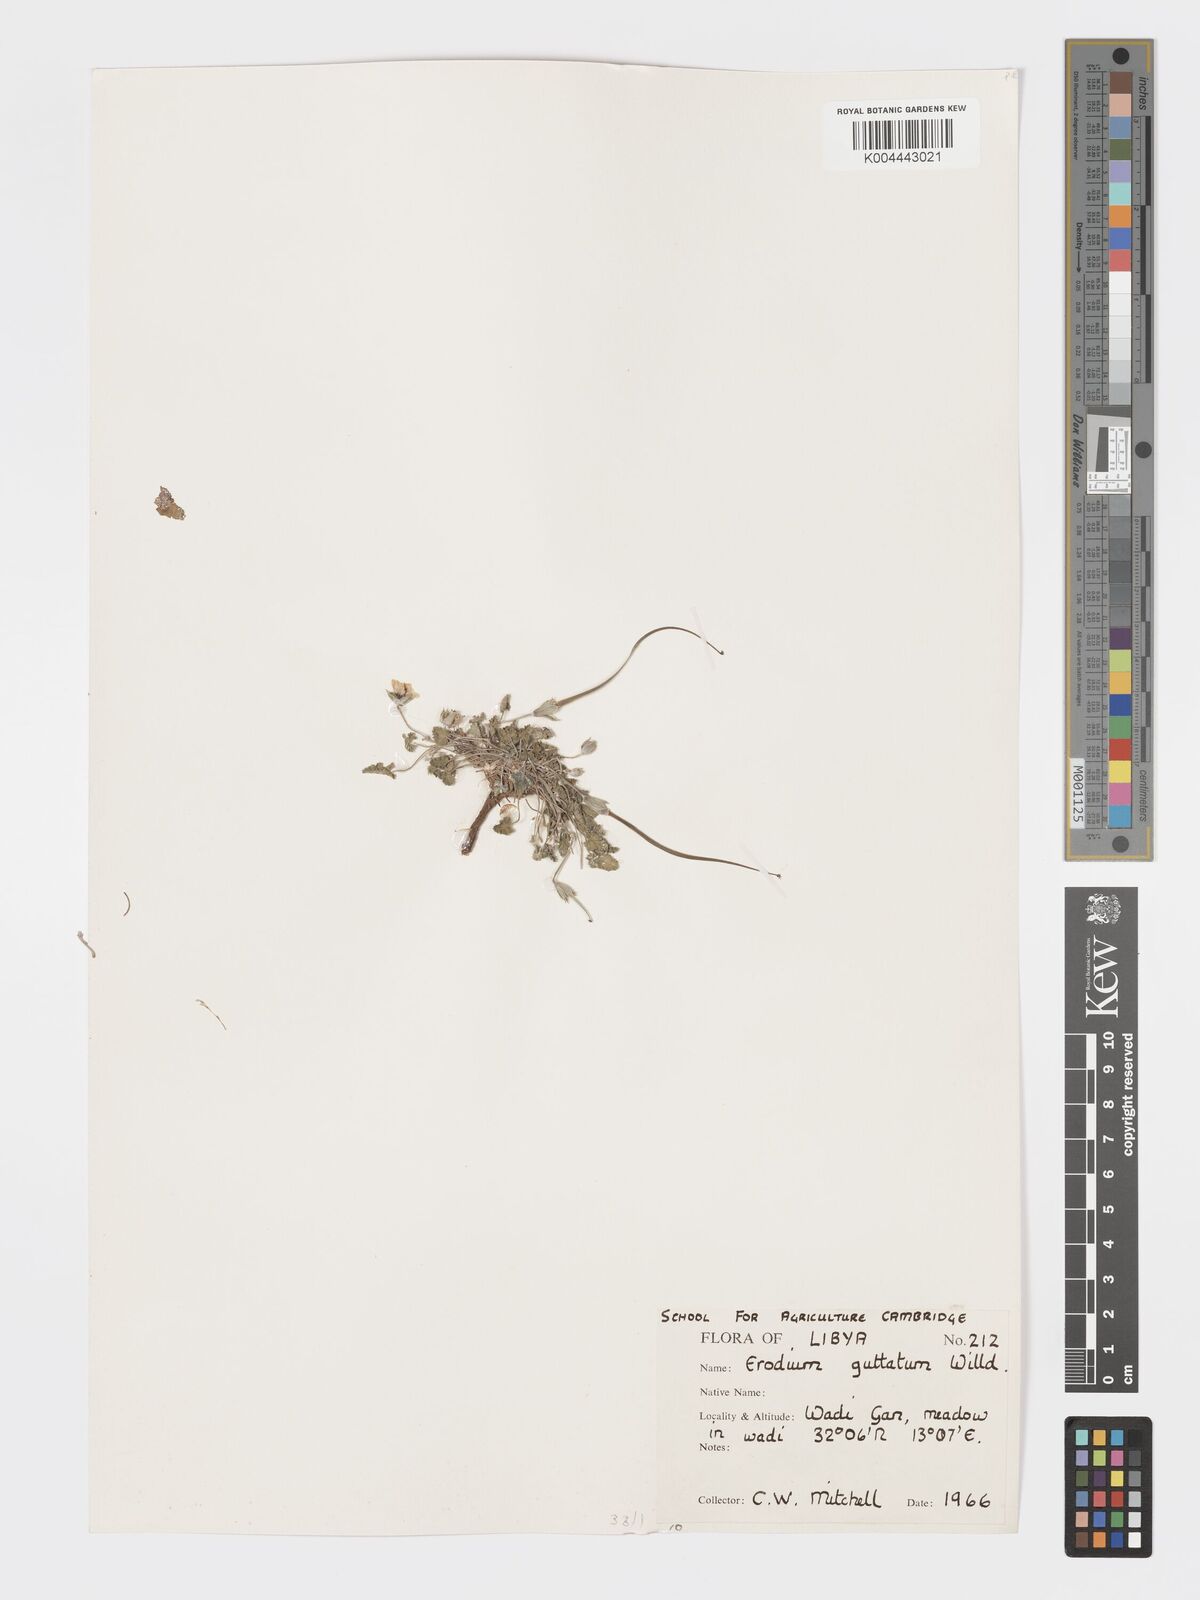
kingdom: Plantae
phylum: Tracheophyta
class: Magnoliopsida
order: Geraniales
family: Geraniaceae
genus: Erodium
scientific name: Erodium guttatum
